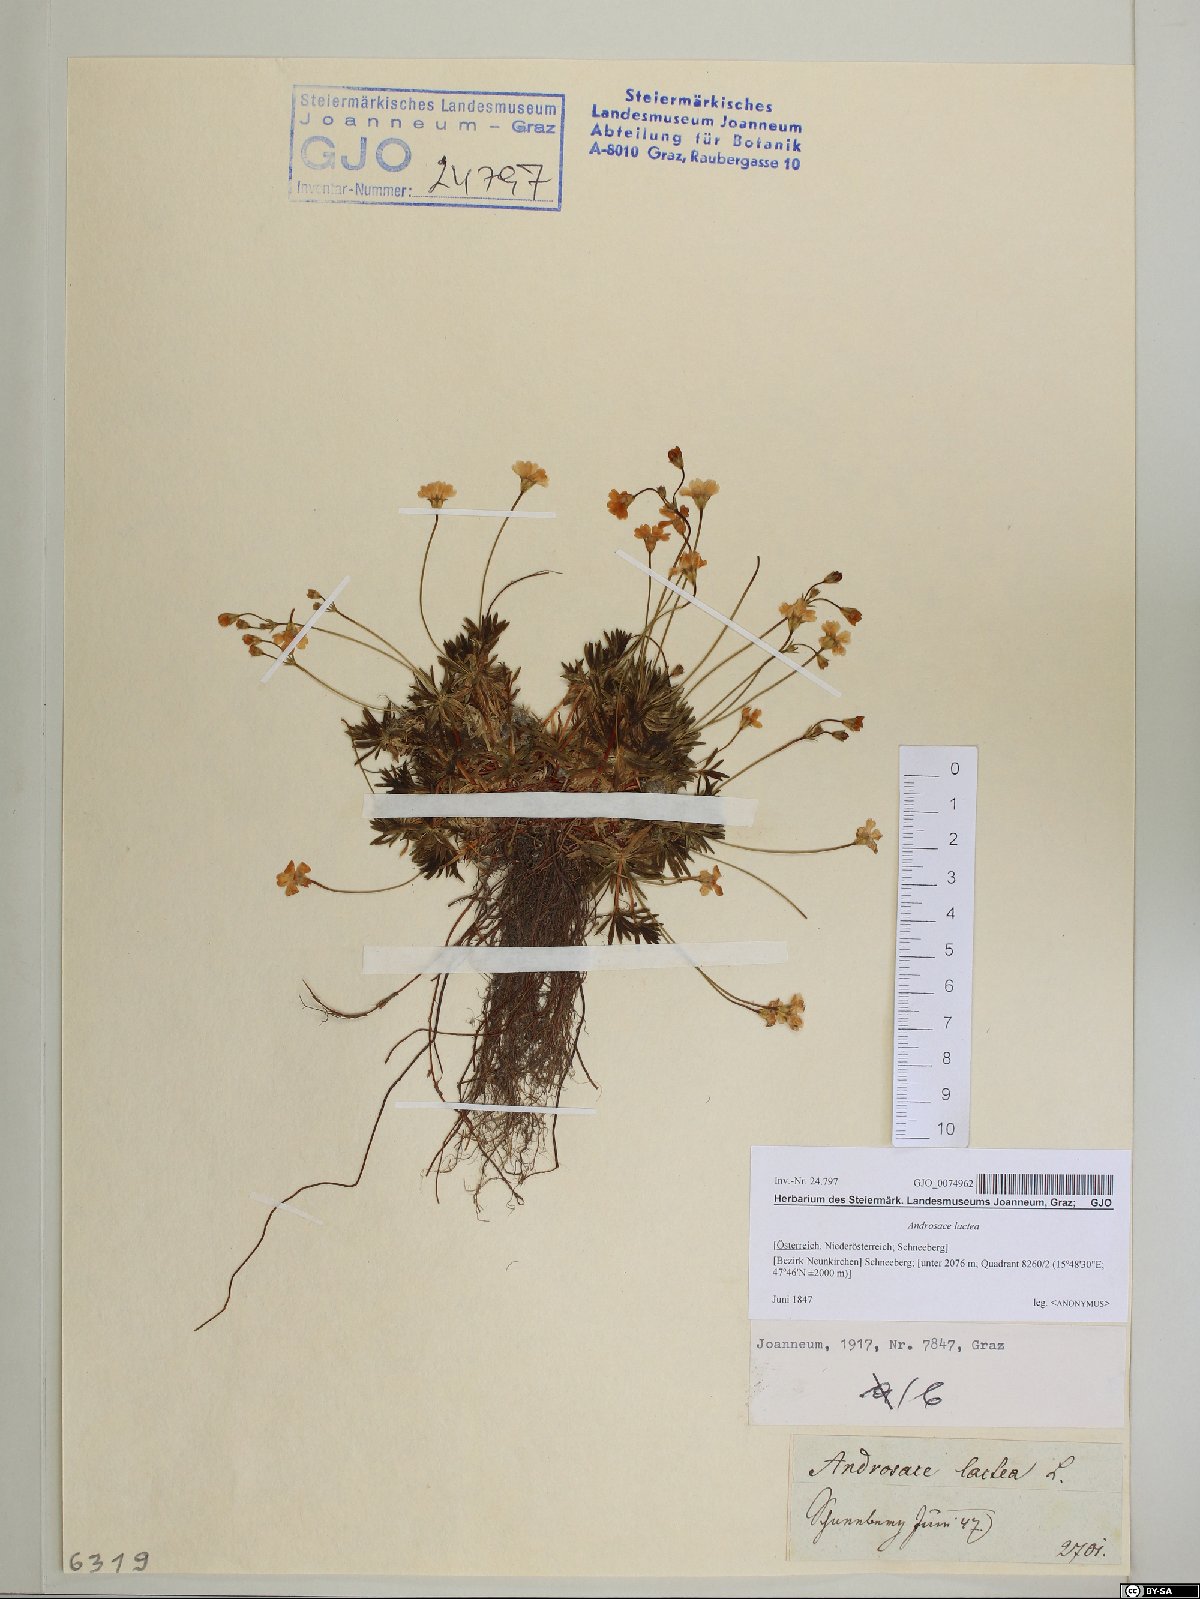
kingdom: Plantae
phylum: Tracheophyta
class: Magnoliopsida
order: Ericales
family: Primulaceae
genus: Androsace
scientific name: Androsace lactea
